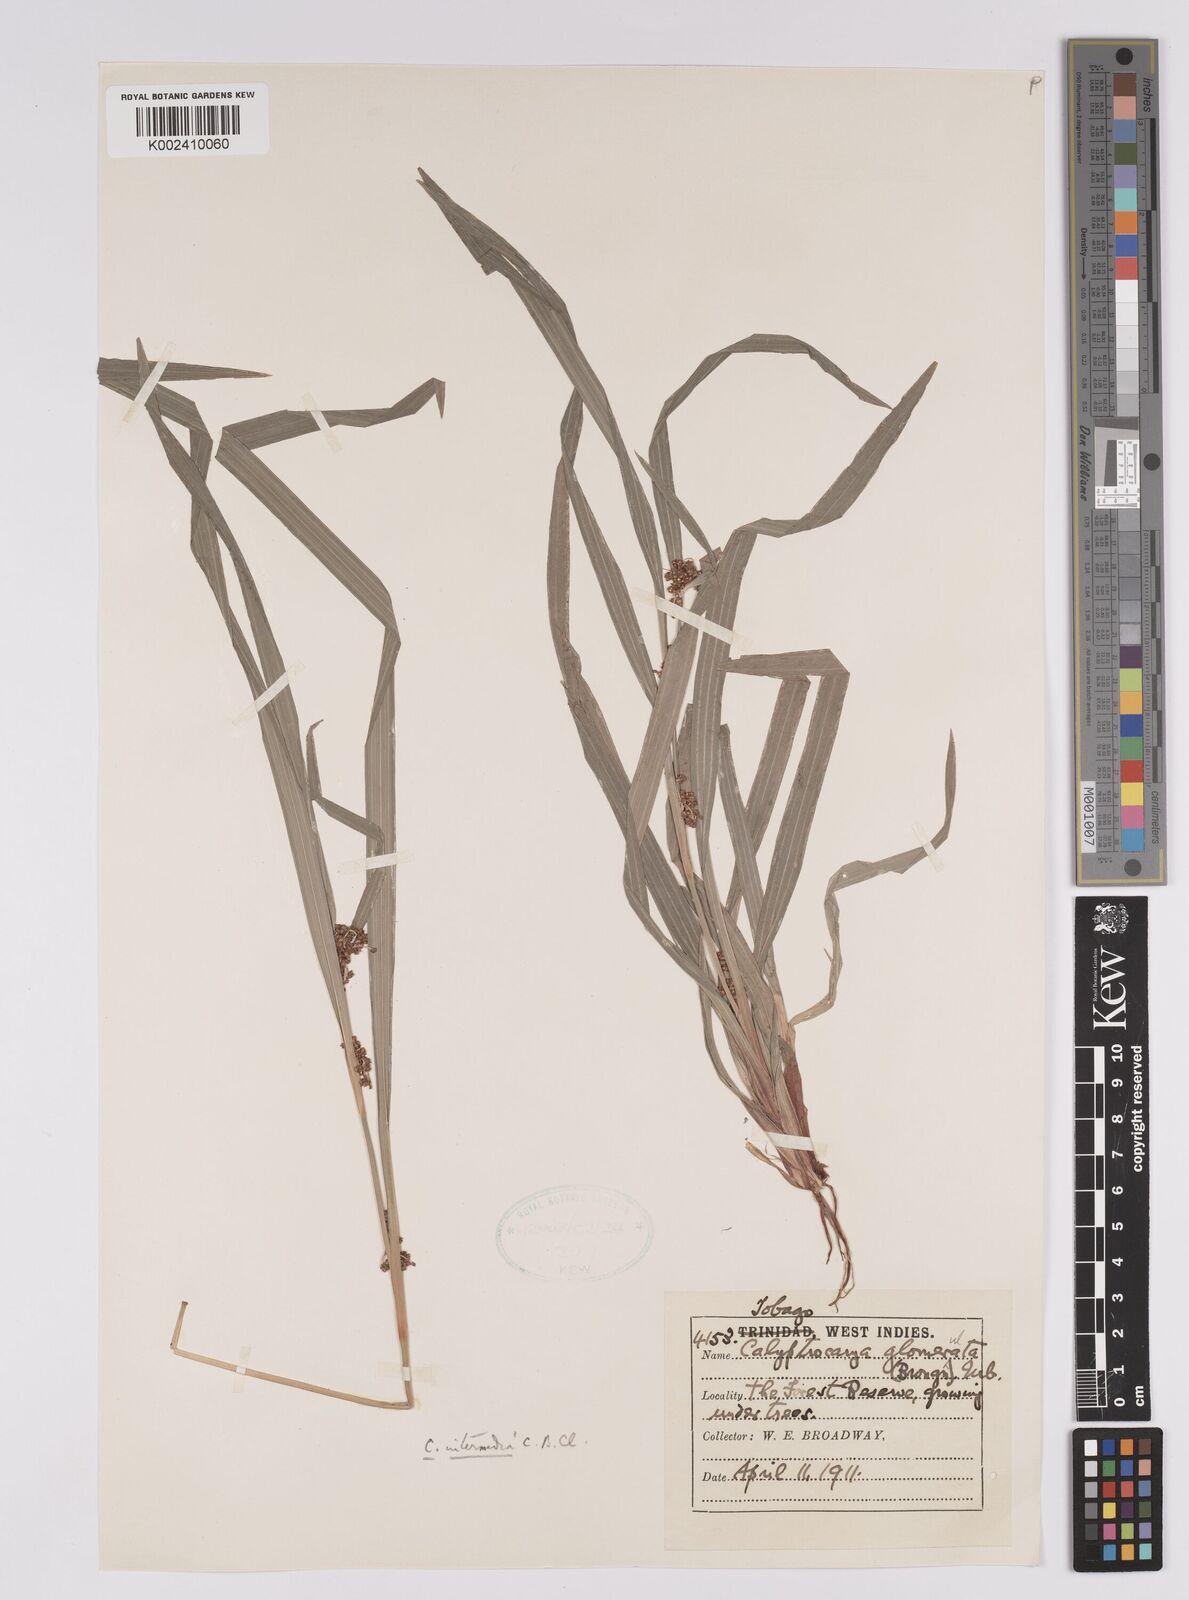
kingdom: Plantae
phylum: Tracheophyta
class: Liliopsida
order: Poales
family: Cyperaceae
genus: Calyptrocarya
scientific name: Calyptrocarya glomerulata
